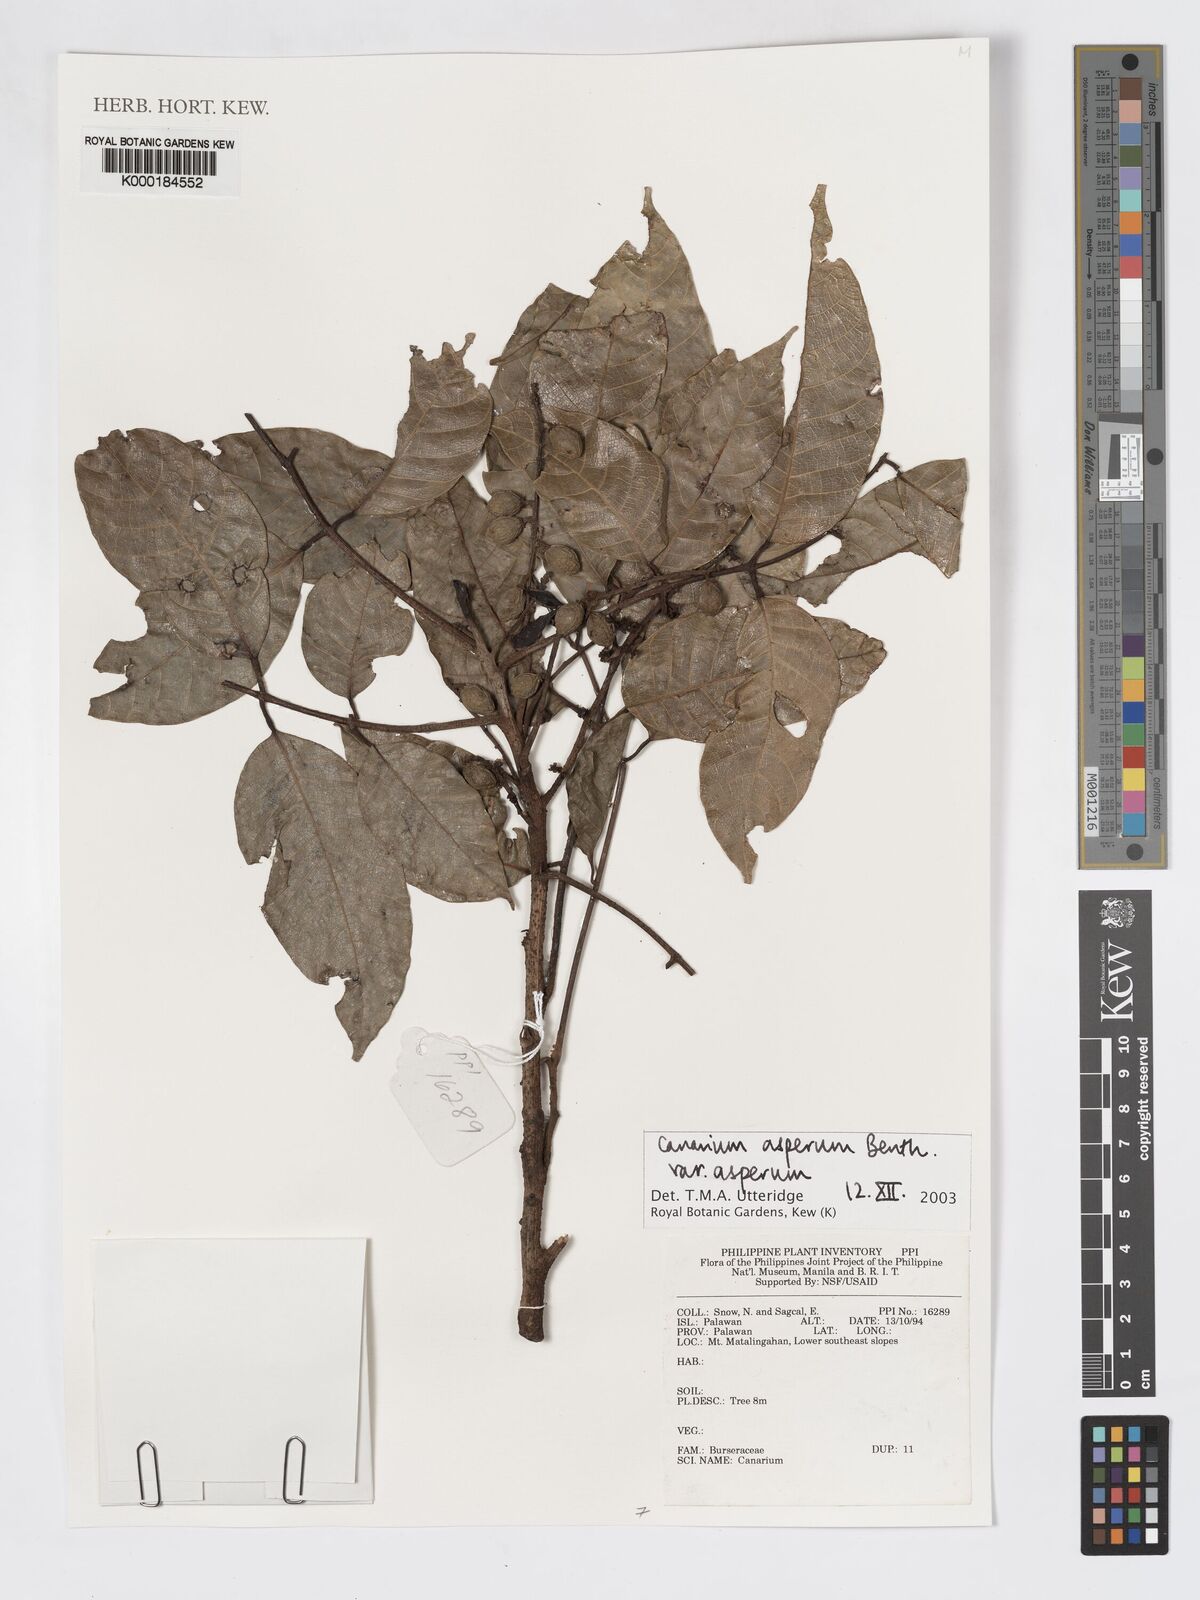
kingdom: Plantae
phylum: Tracheophyta
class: Magnoliopsida
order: Sapindales
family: Burseraceae
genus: Canarium
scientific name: Canarium asperum
